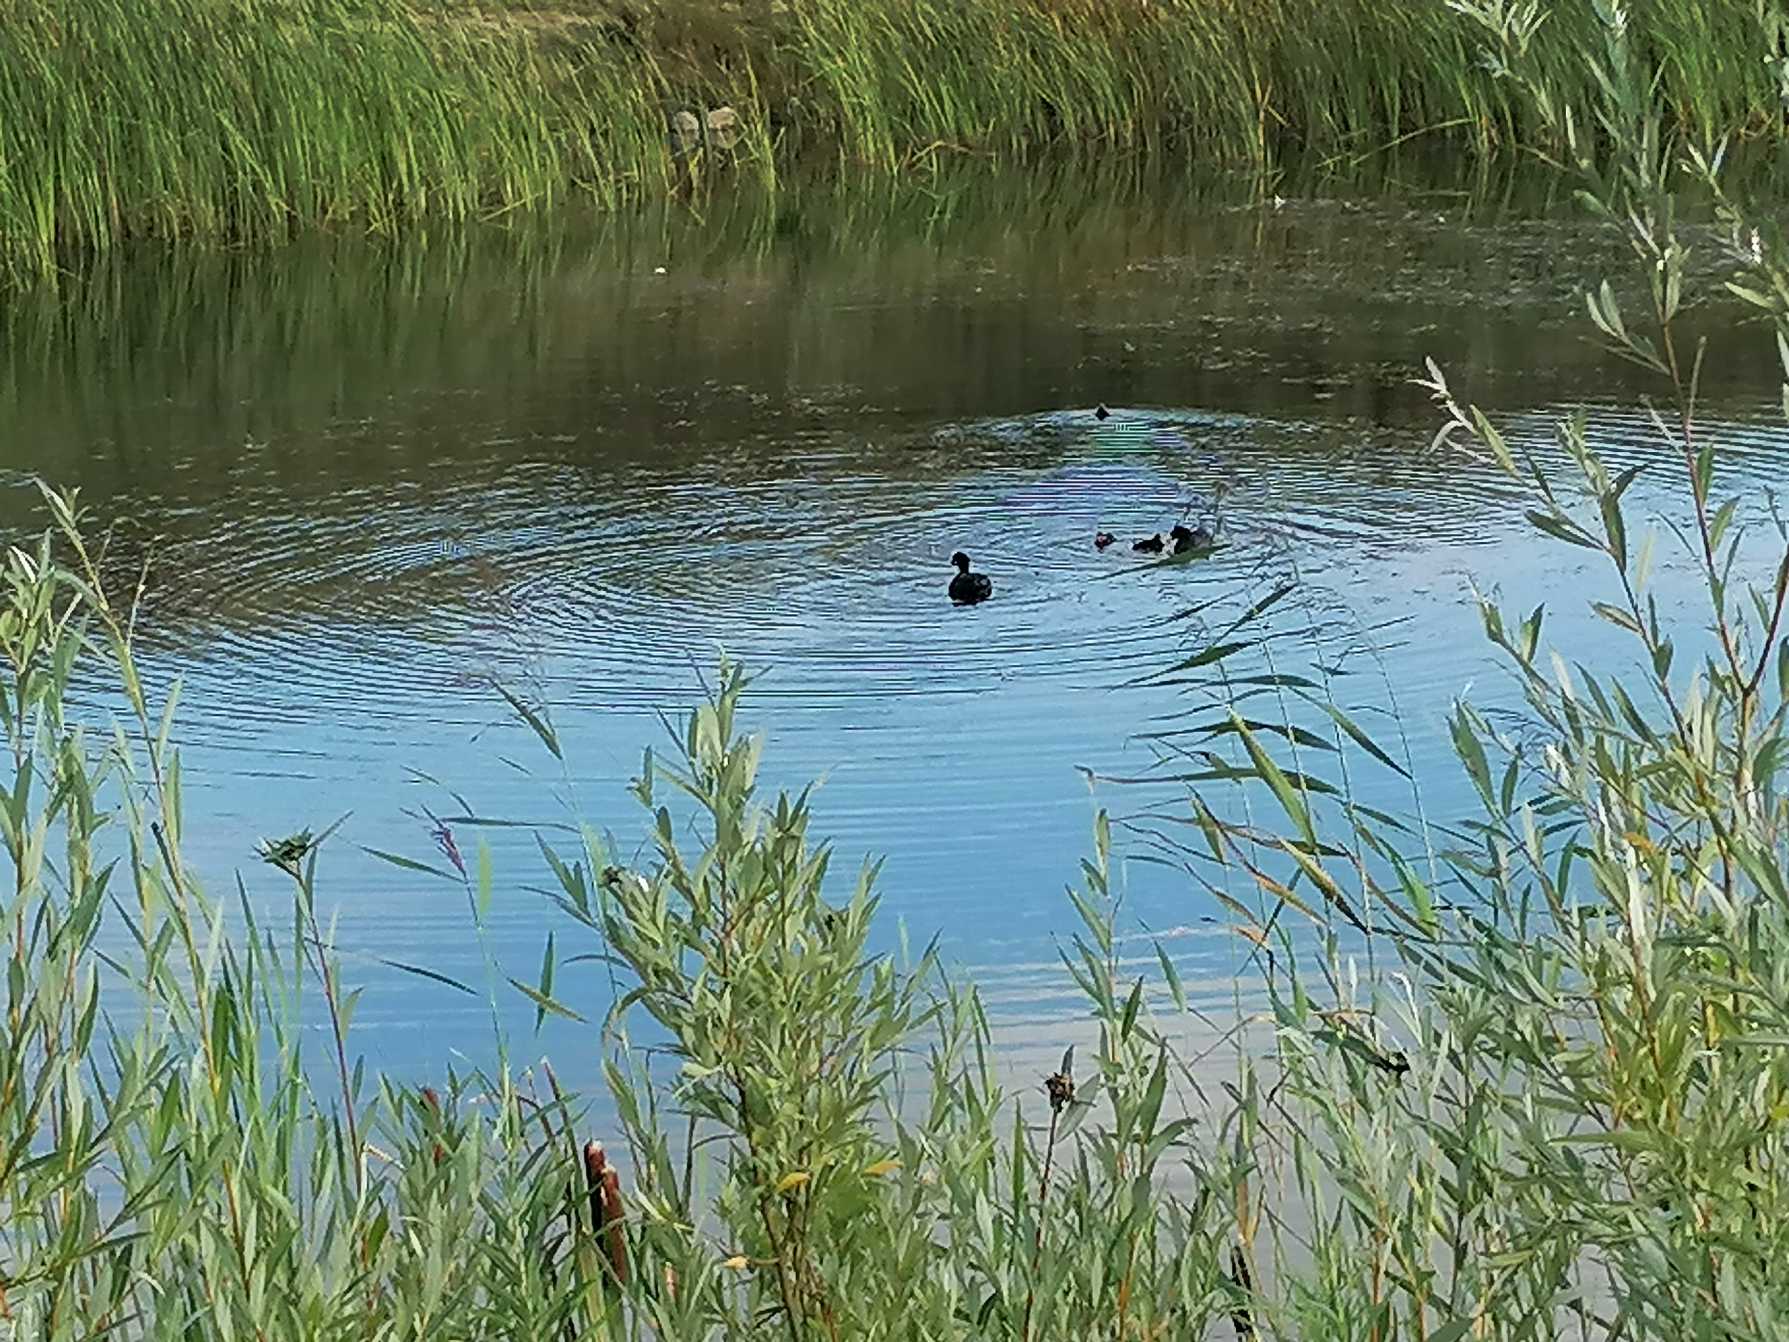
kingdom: Animalia
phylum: Chordata
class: Aves
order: Gruiformes
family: Rallidae
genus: Fulica
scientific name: Fulica atra
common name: Blishøne
